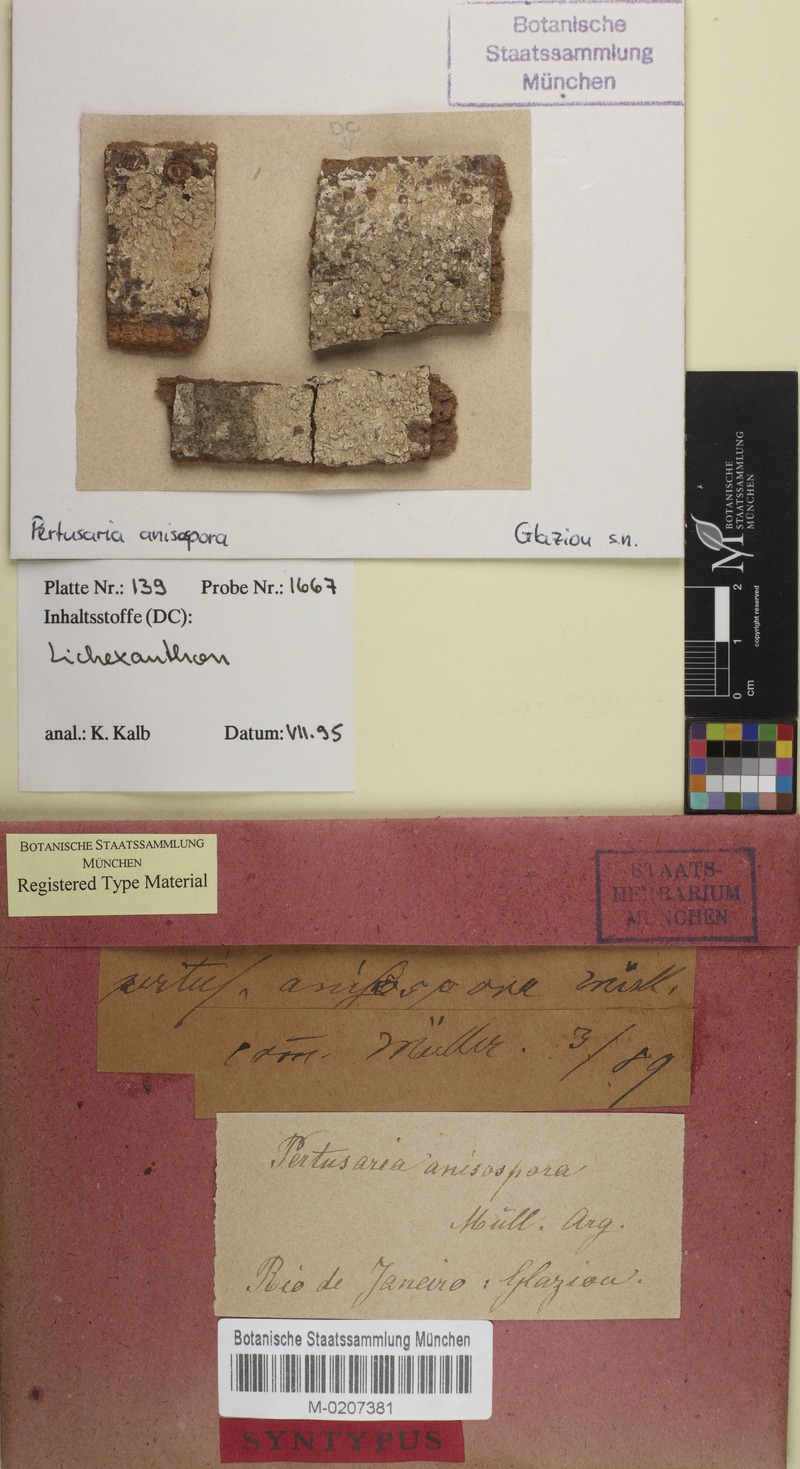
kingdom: Fungi
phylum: Ascomycota
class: Lecanoromycetes
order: Pertusariales
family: Pertusariaceae
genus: Pertusaria
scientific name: Pertusaria
